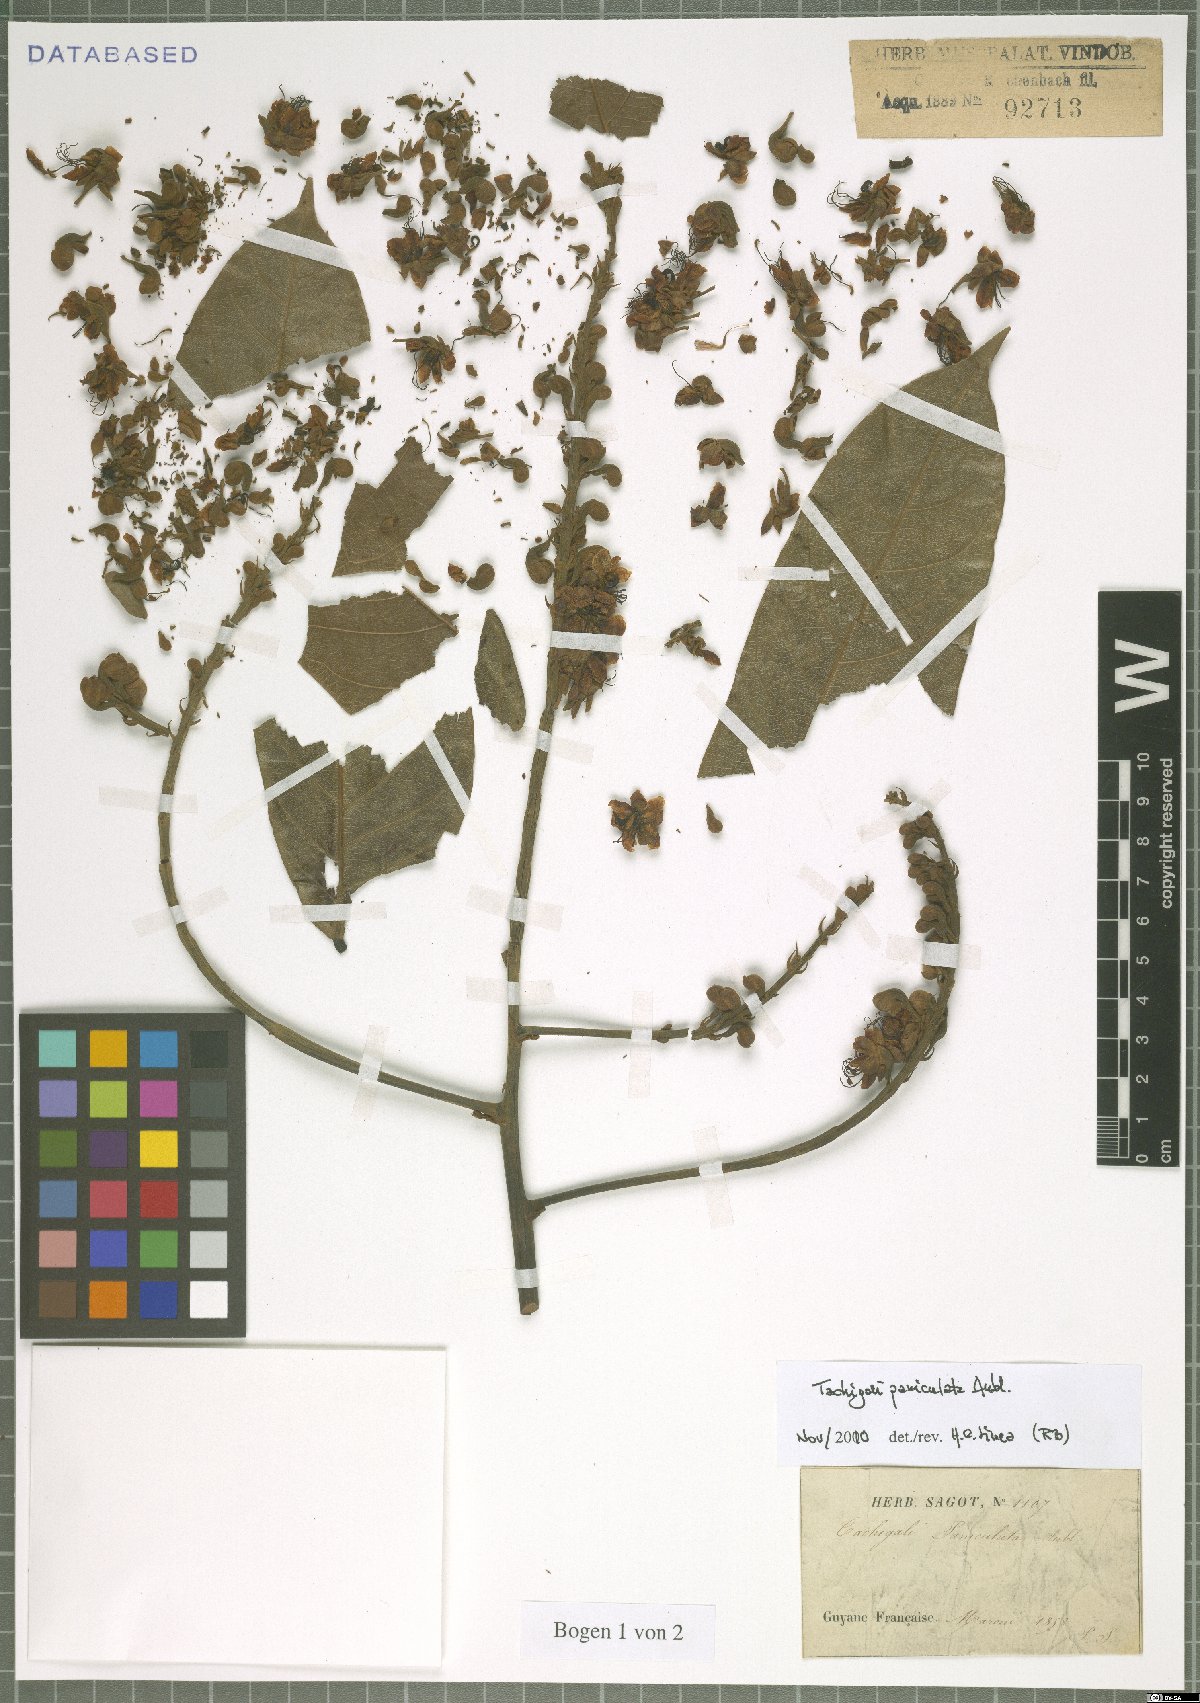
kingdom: Plantae
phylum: Tracheophyta
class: Magnoliopsida
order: Fabales
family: Fabaceae
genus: Tachigali
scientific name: Tachigali paniculata
